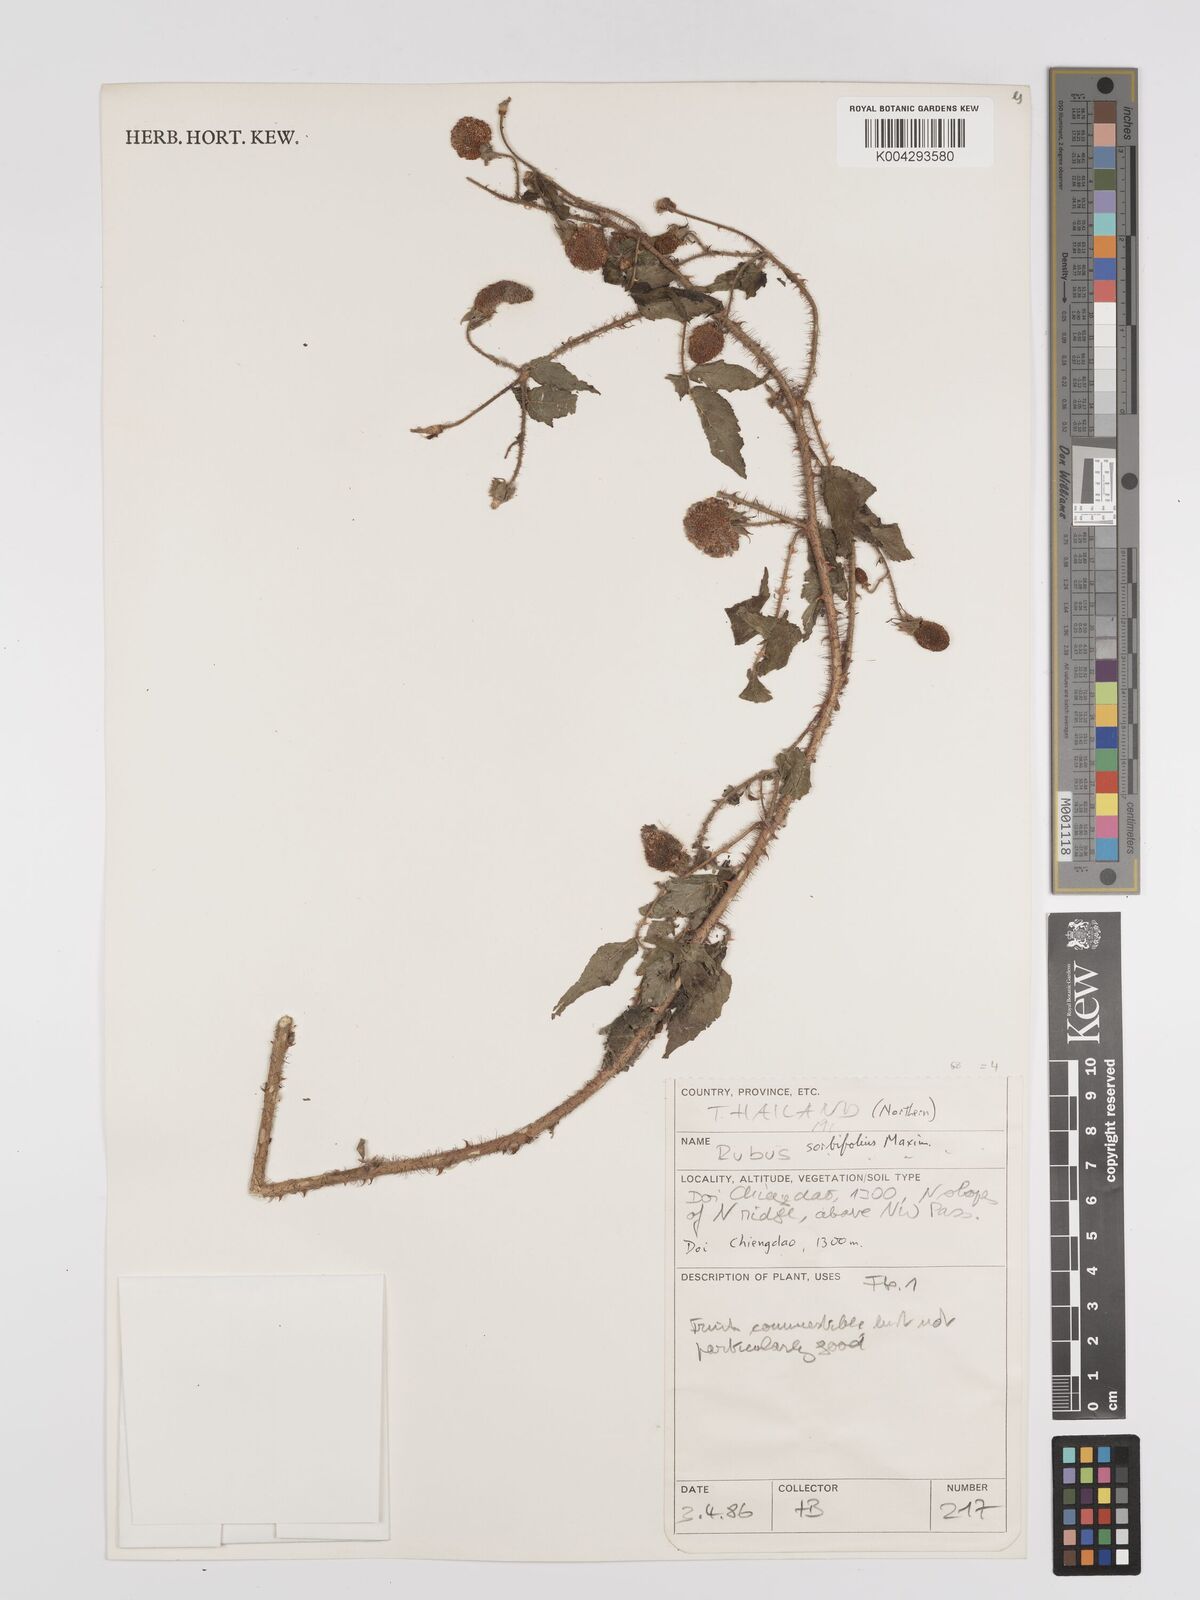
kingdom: Plantae
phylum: Tracheophyta
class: Magnoliopsida
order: Rosales
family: Rosaceae
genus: Rubus
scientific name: Rubus sumatranus
